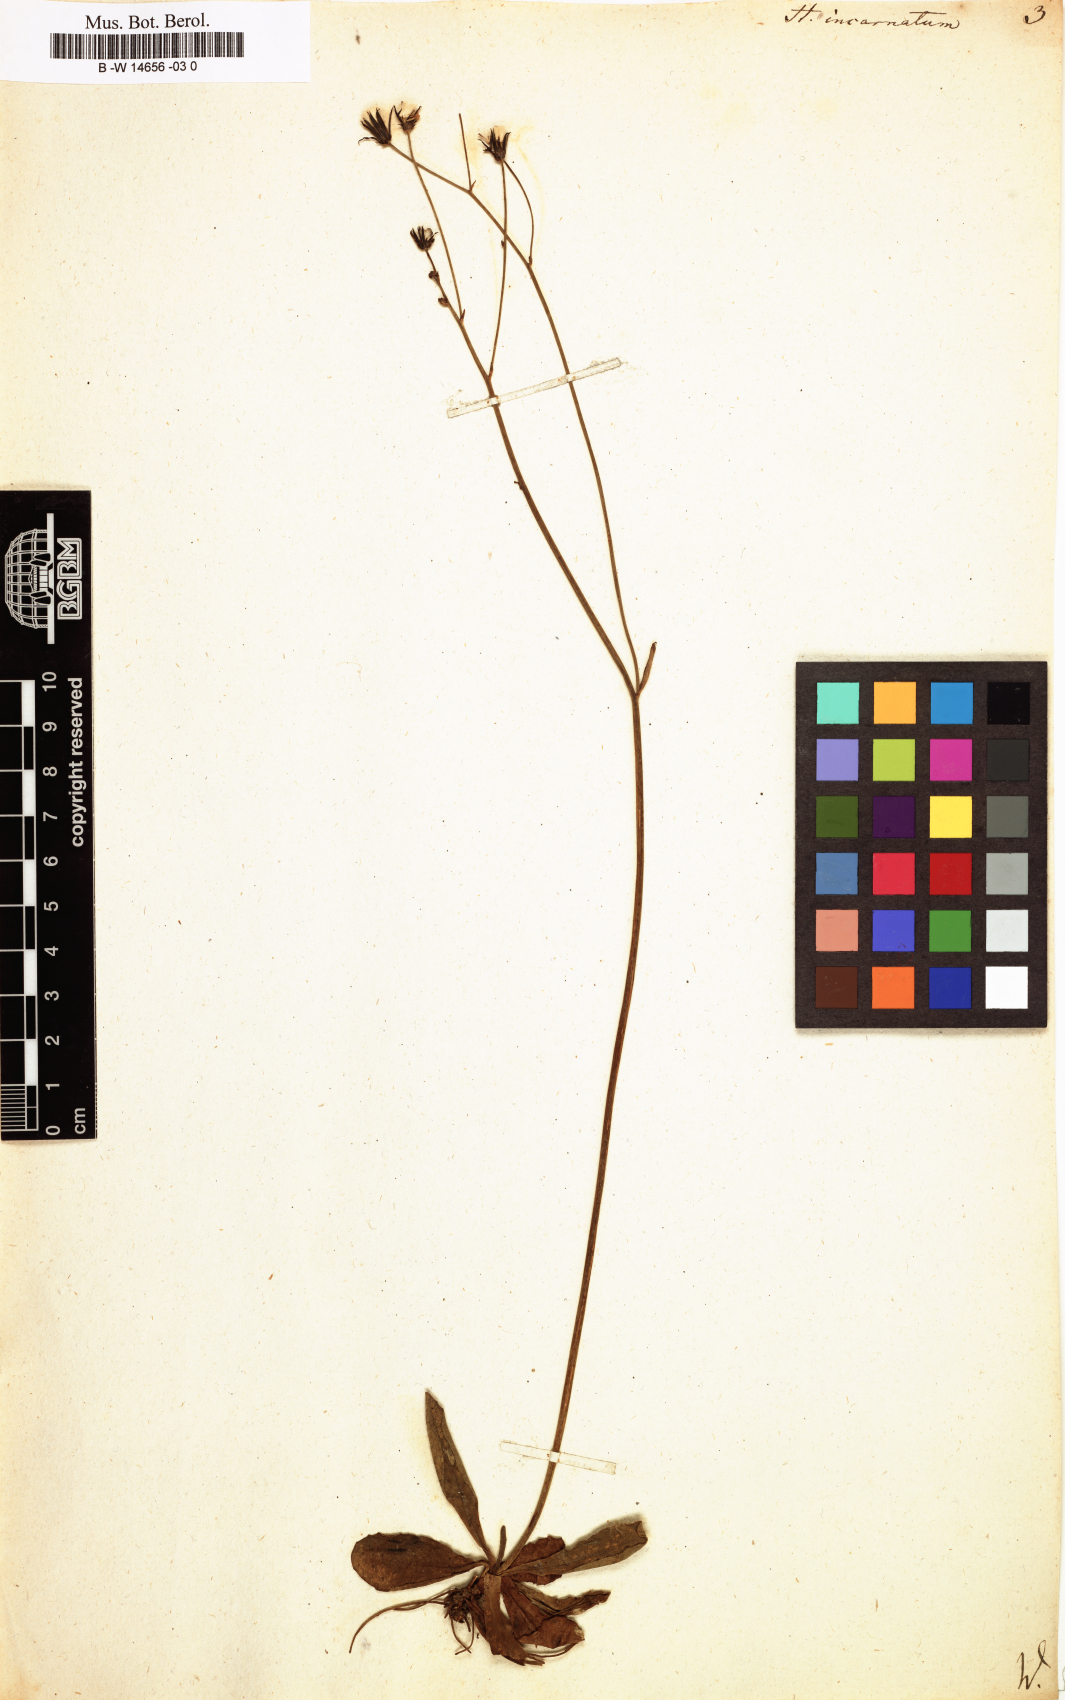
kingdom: Plantae
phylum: Tracheophyta
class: Magnoliopsida
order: Asterales
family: Asteraceae
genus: Hieracium
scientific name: Hieracium
